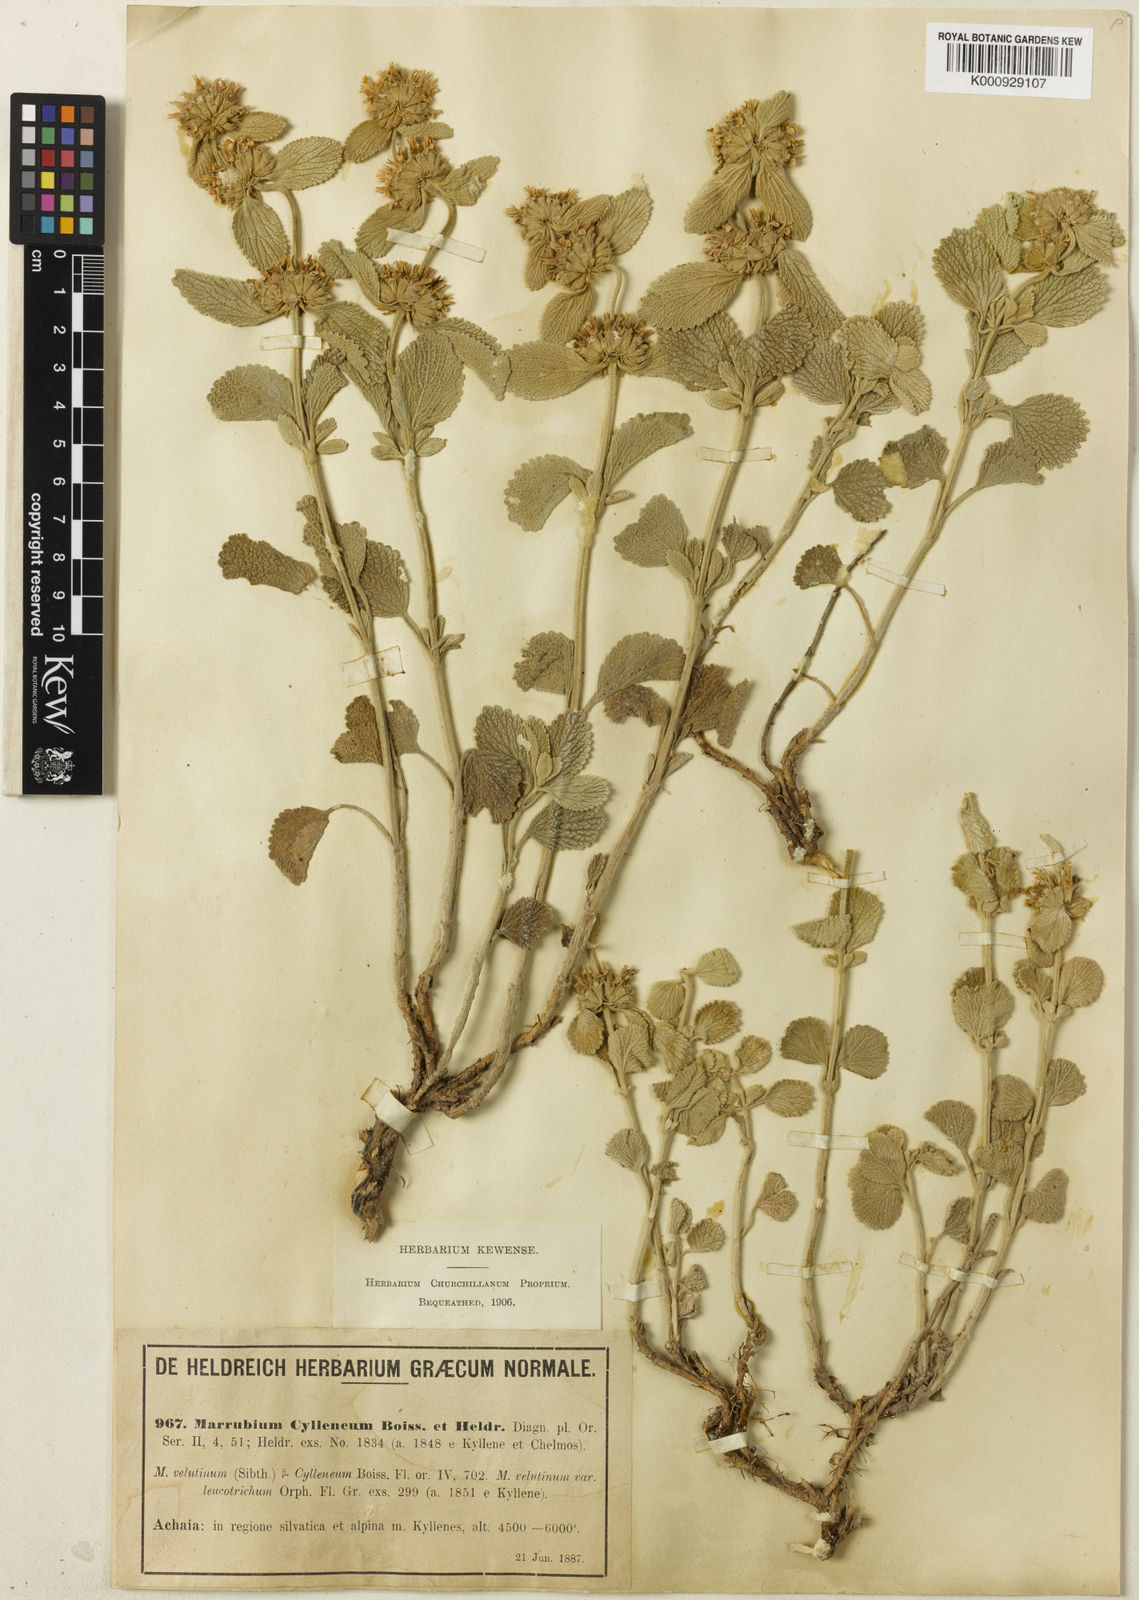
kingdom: Plantae
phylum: Tracheophyta
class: Magnoliopsida
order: Lamiales
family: Lamiaceae
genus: Marrubium
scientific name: Marrubium cylleneum
